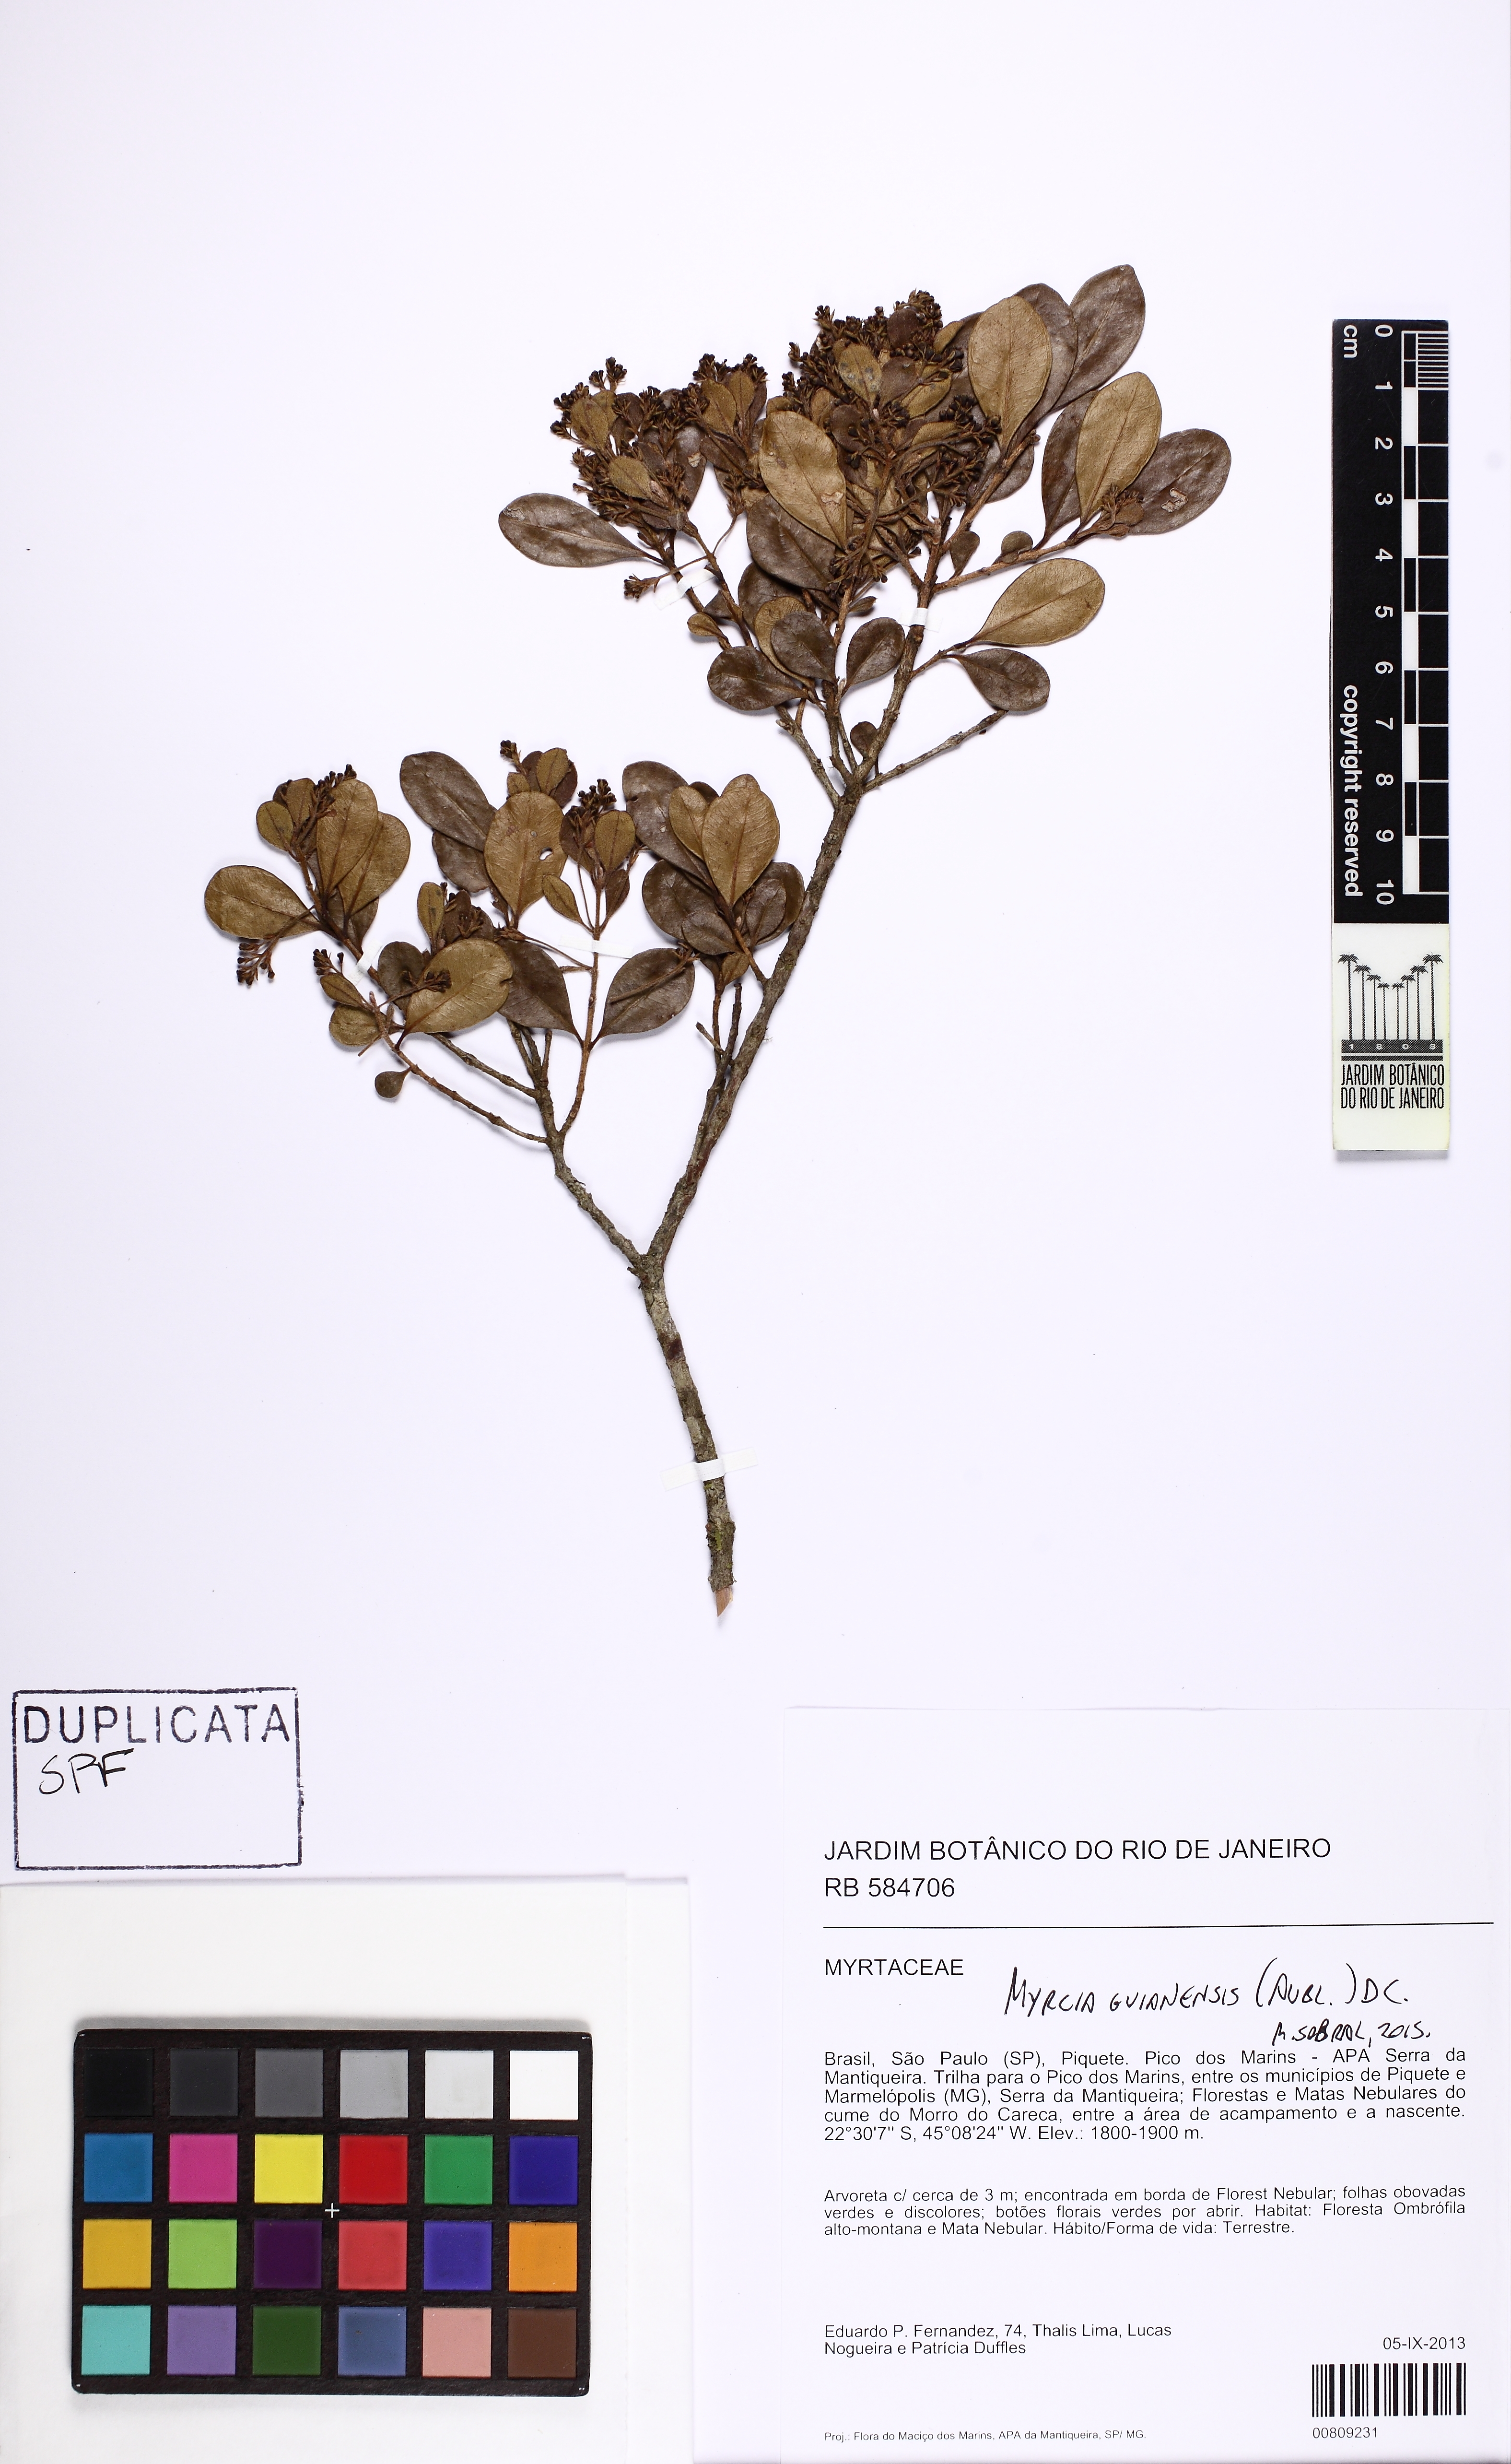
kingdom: Plantae
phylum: Tracheophyta
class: Magnoliopsida
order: Myrtales
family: Myrtaceae
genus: Myrcia
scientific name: Myrcia guianensis
